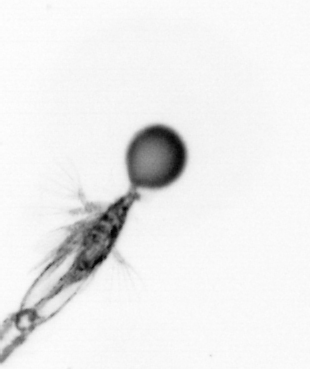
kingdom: Animalia
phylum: Arthropoda
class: Copepoda
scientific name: Copepoda
